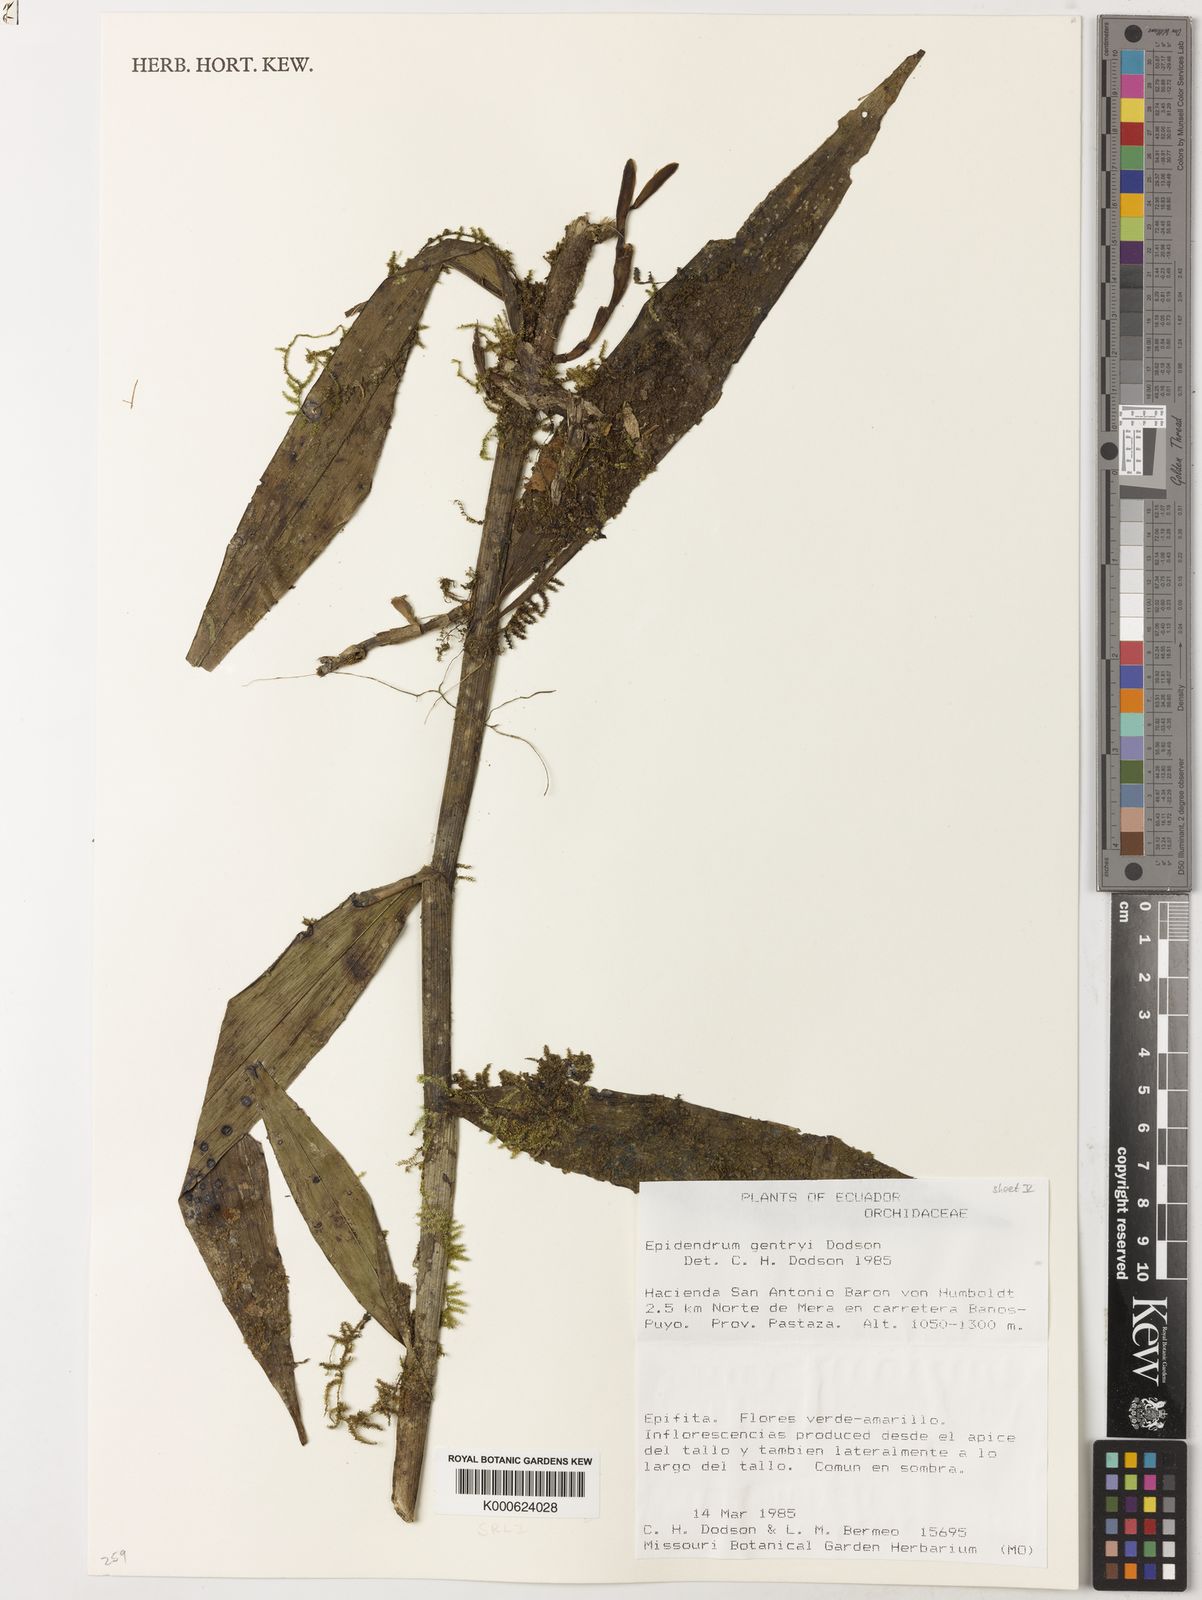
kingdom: Plantae
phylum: Tracheophyta
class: Liliopsida
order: Asparagales
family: Orchidaceae
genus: Epidendrum
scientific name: Epidendrum gentryi
